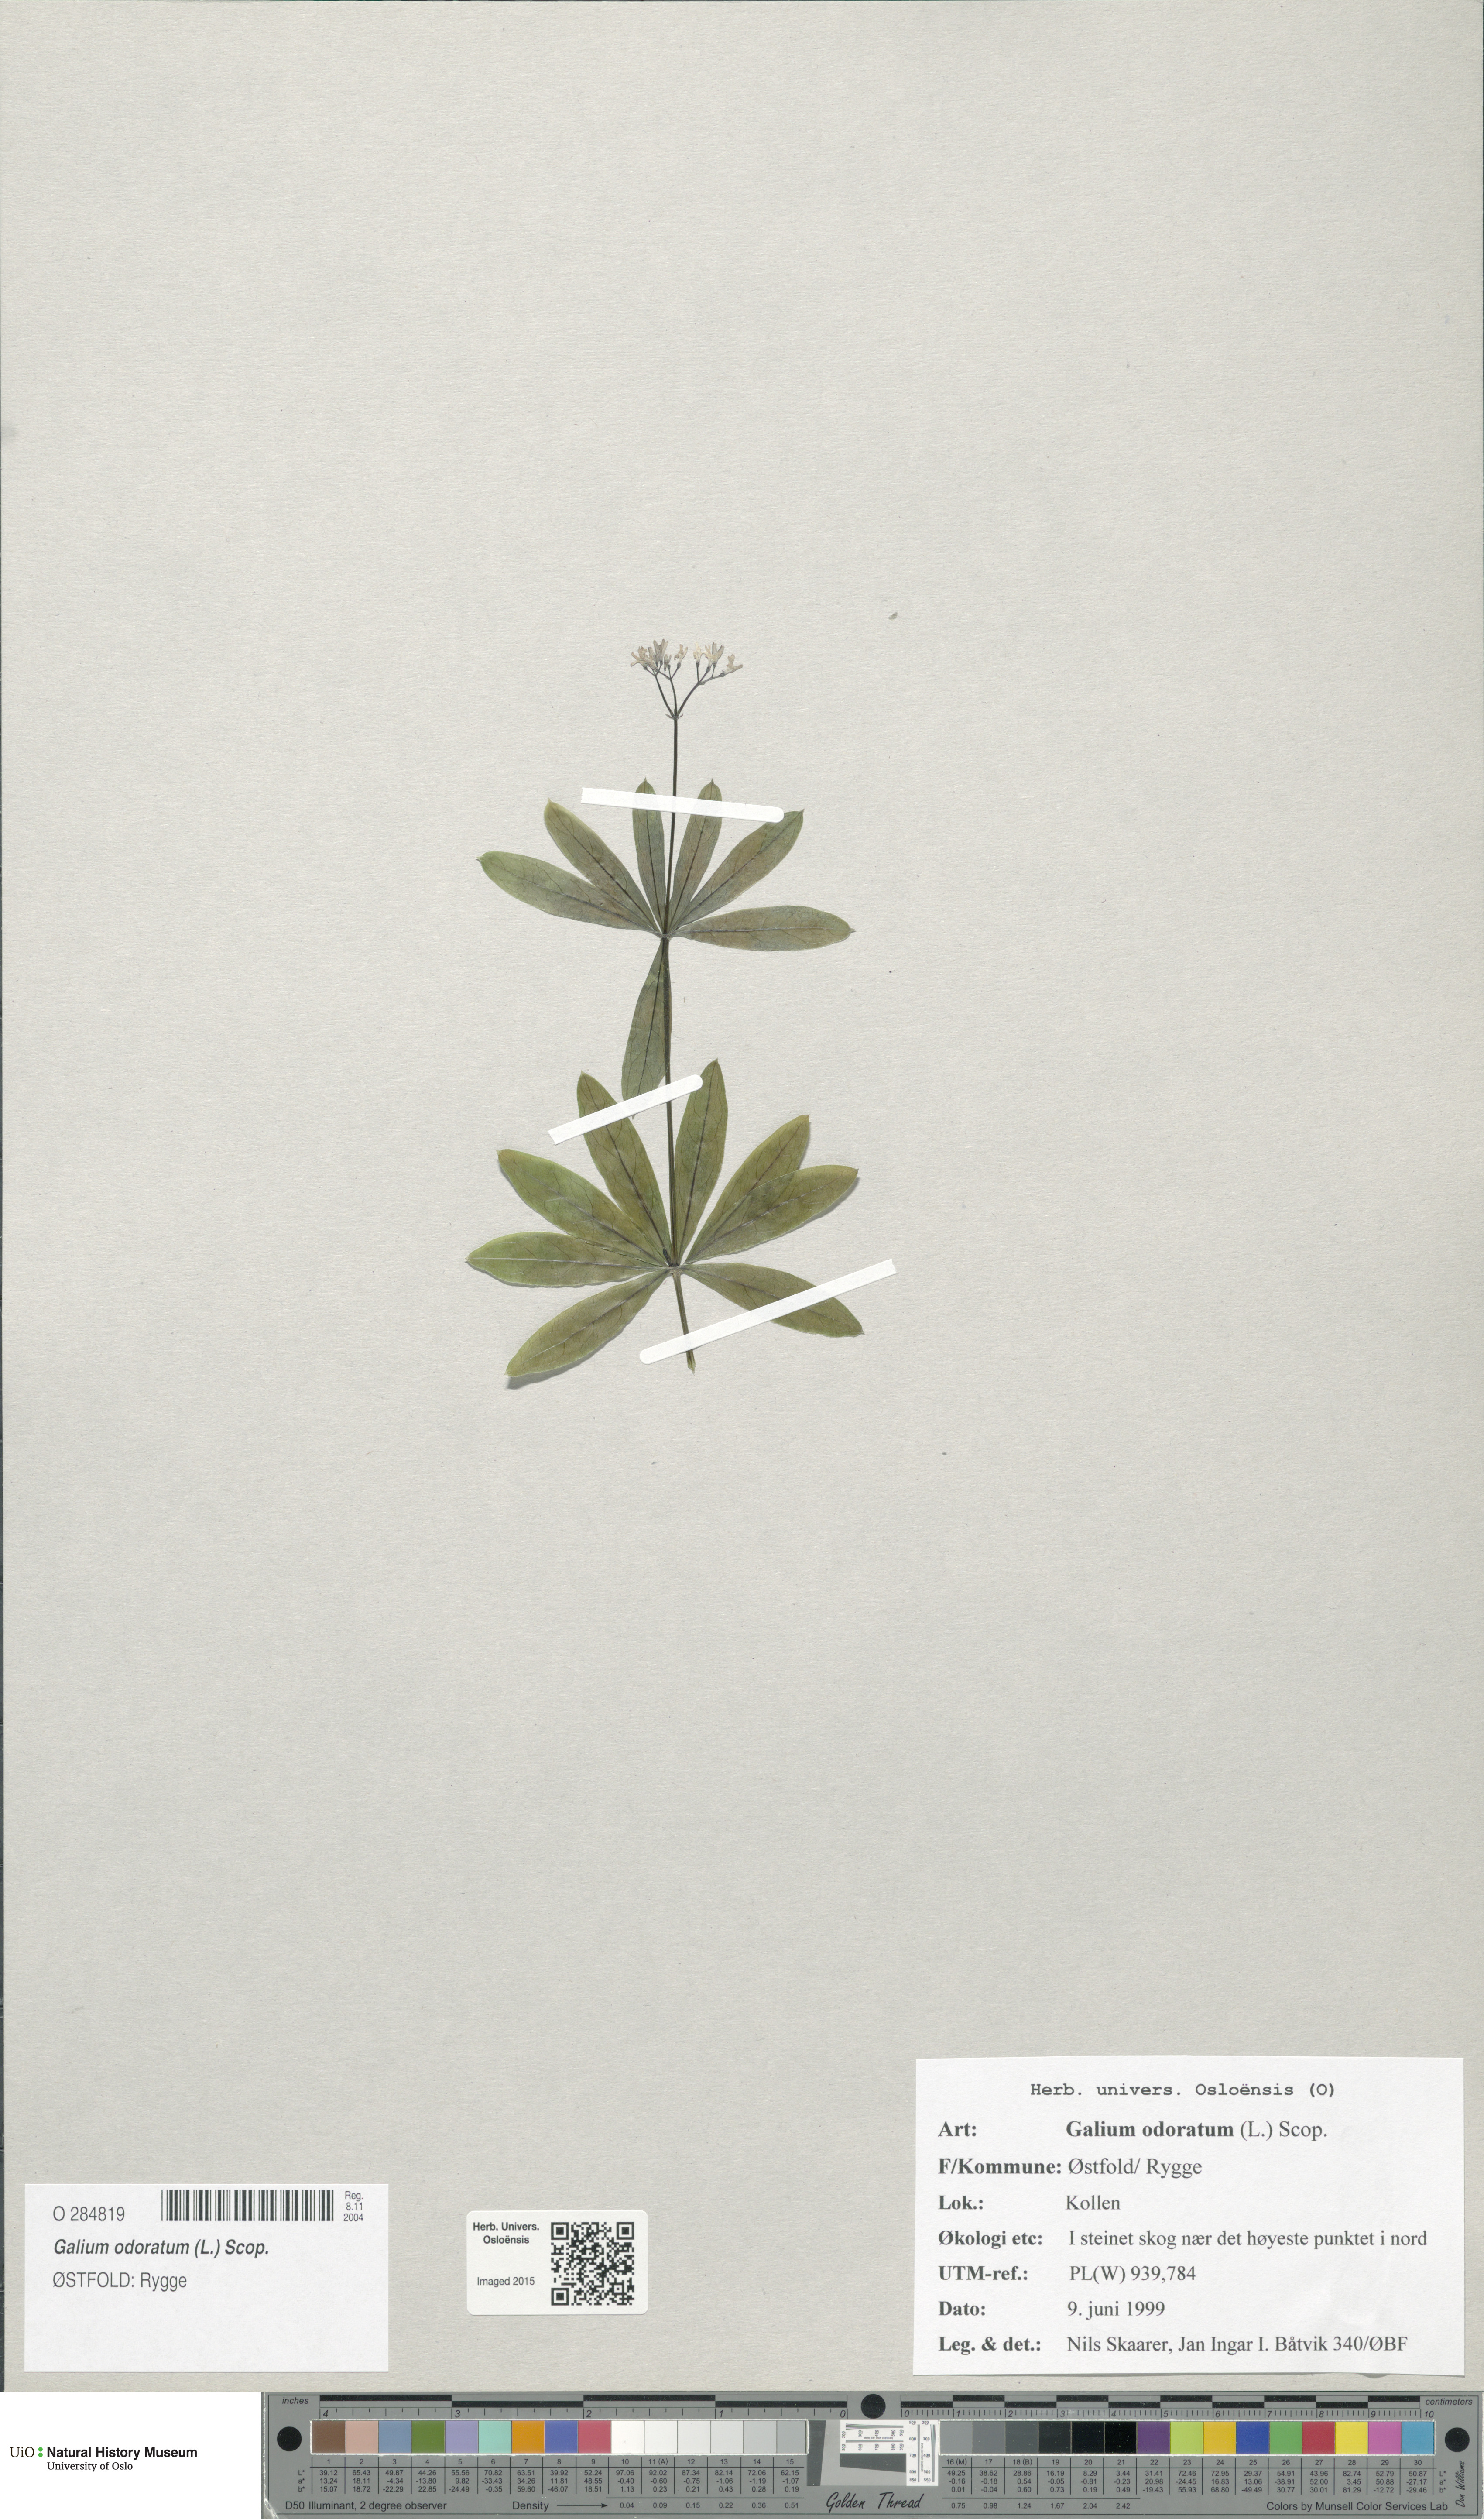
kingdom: Plantae
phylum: Tracheophyta
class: Magnoliopsida
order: Gentianales
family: Rubiaceae
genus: Galium
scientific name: Galium odoratum
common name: Sweet woodruff
